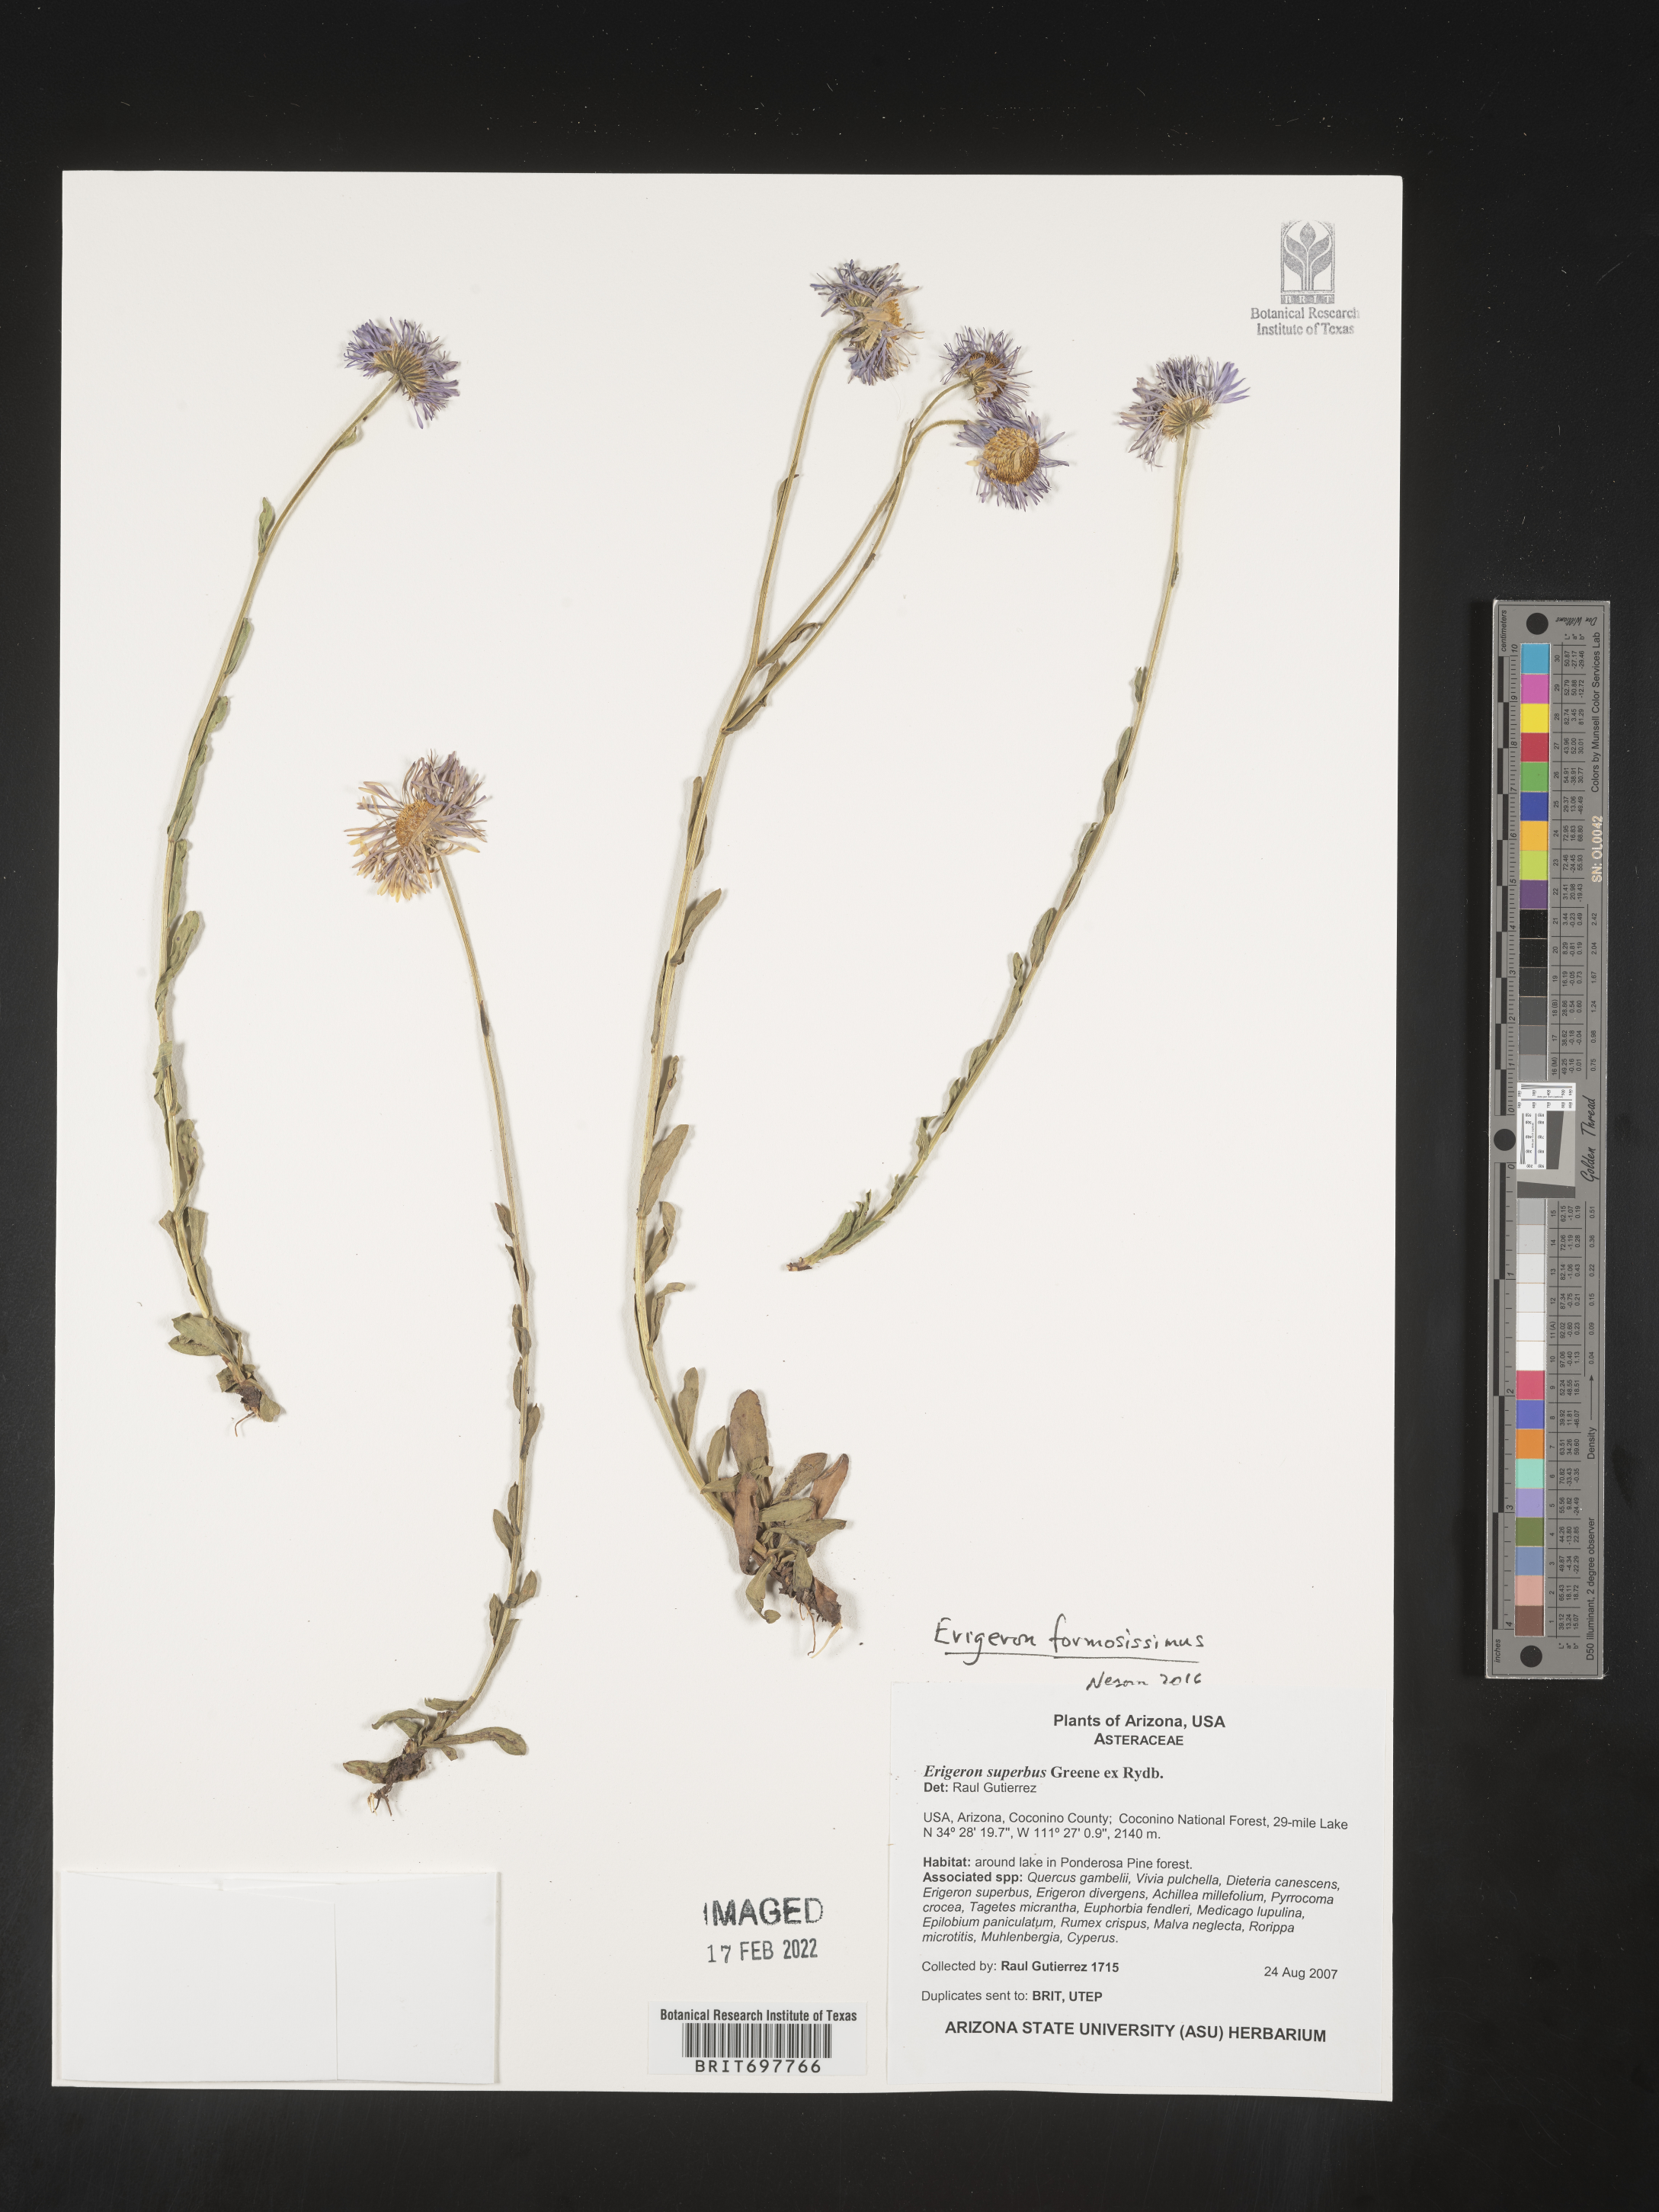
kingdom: Plantae
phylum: Tracheophyta
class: Magnoliopsida
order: Asterales
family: Asteraceae
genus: Erigeron
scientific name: Erigeron formosissimus
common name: Beautiful fleabane
